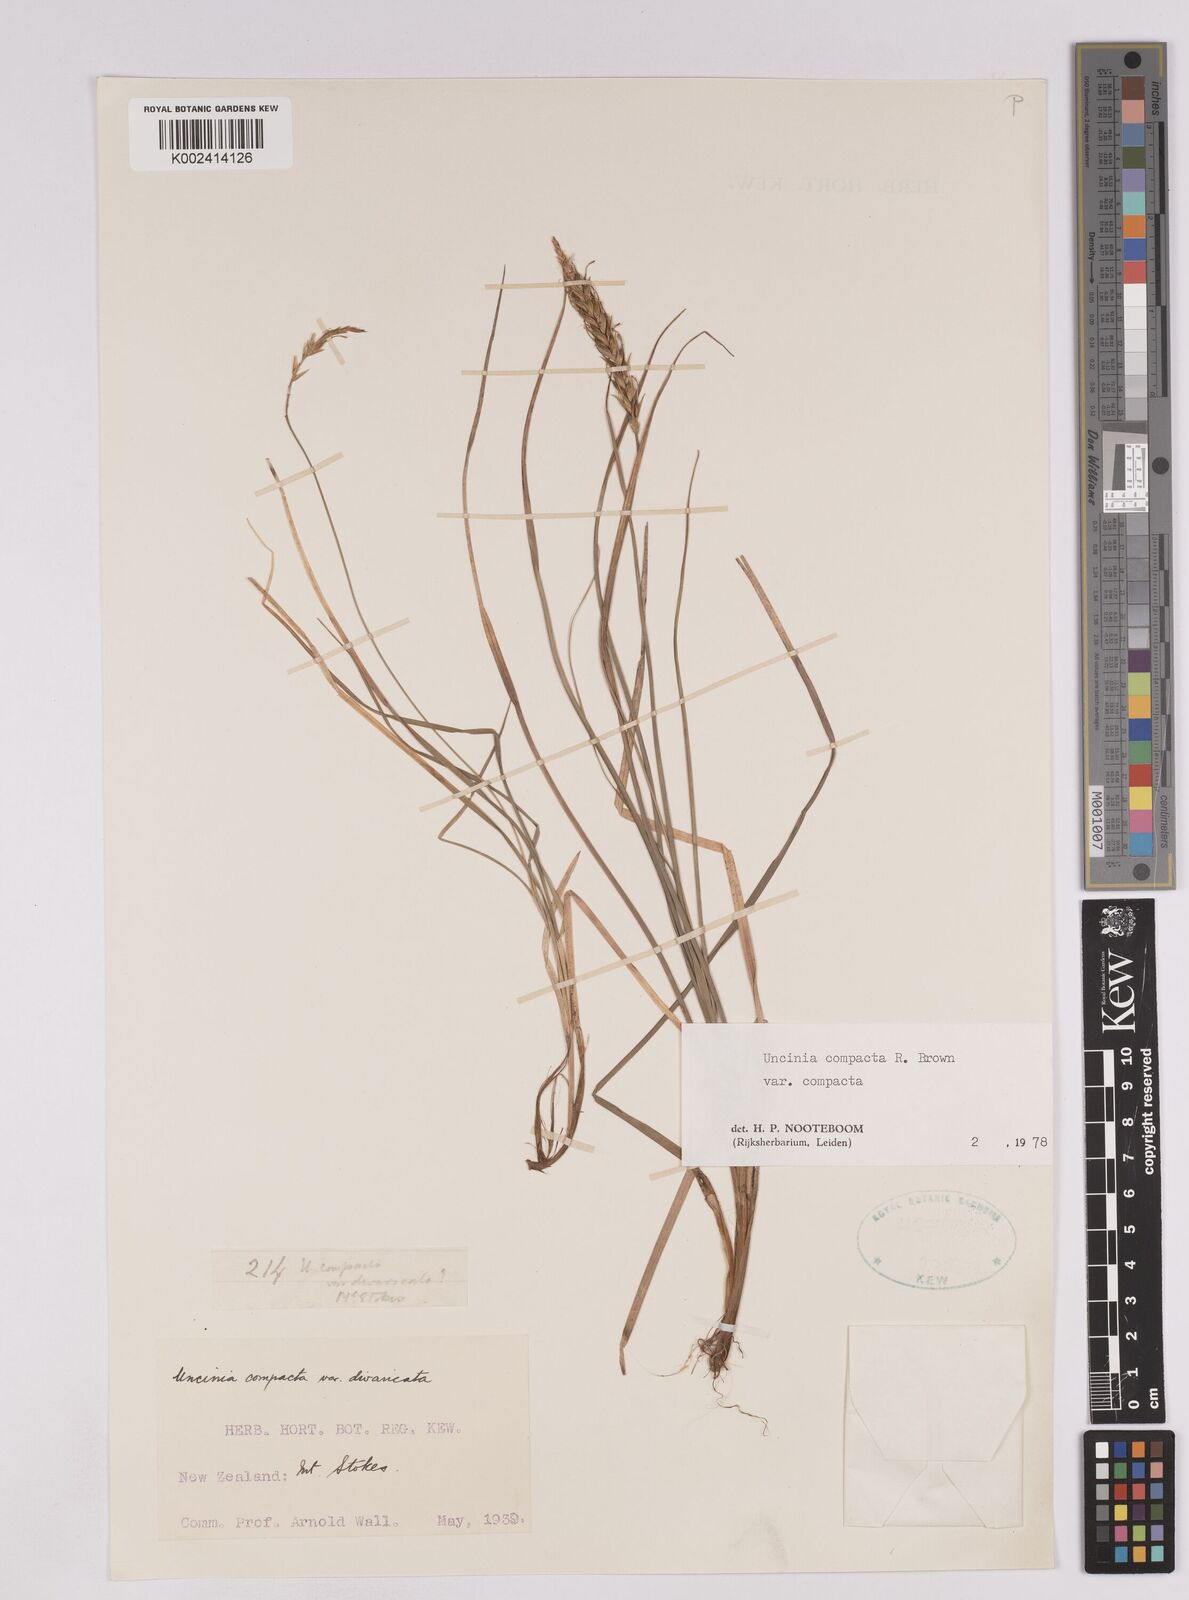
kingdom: Plantae
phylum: Tracheophyta
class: Liliopsida
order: Poales
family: Cyperaceae
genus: Carex
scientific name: Carex austrocompacta
